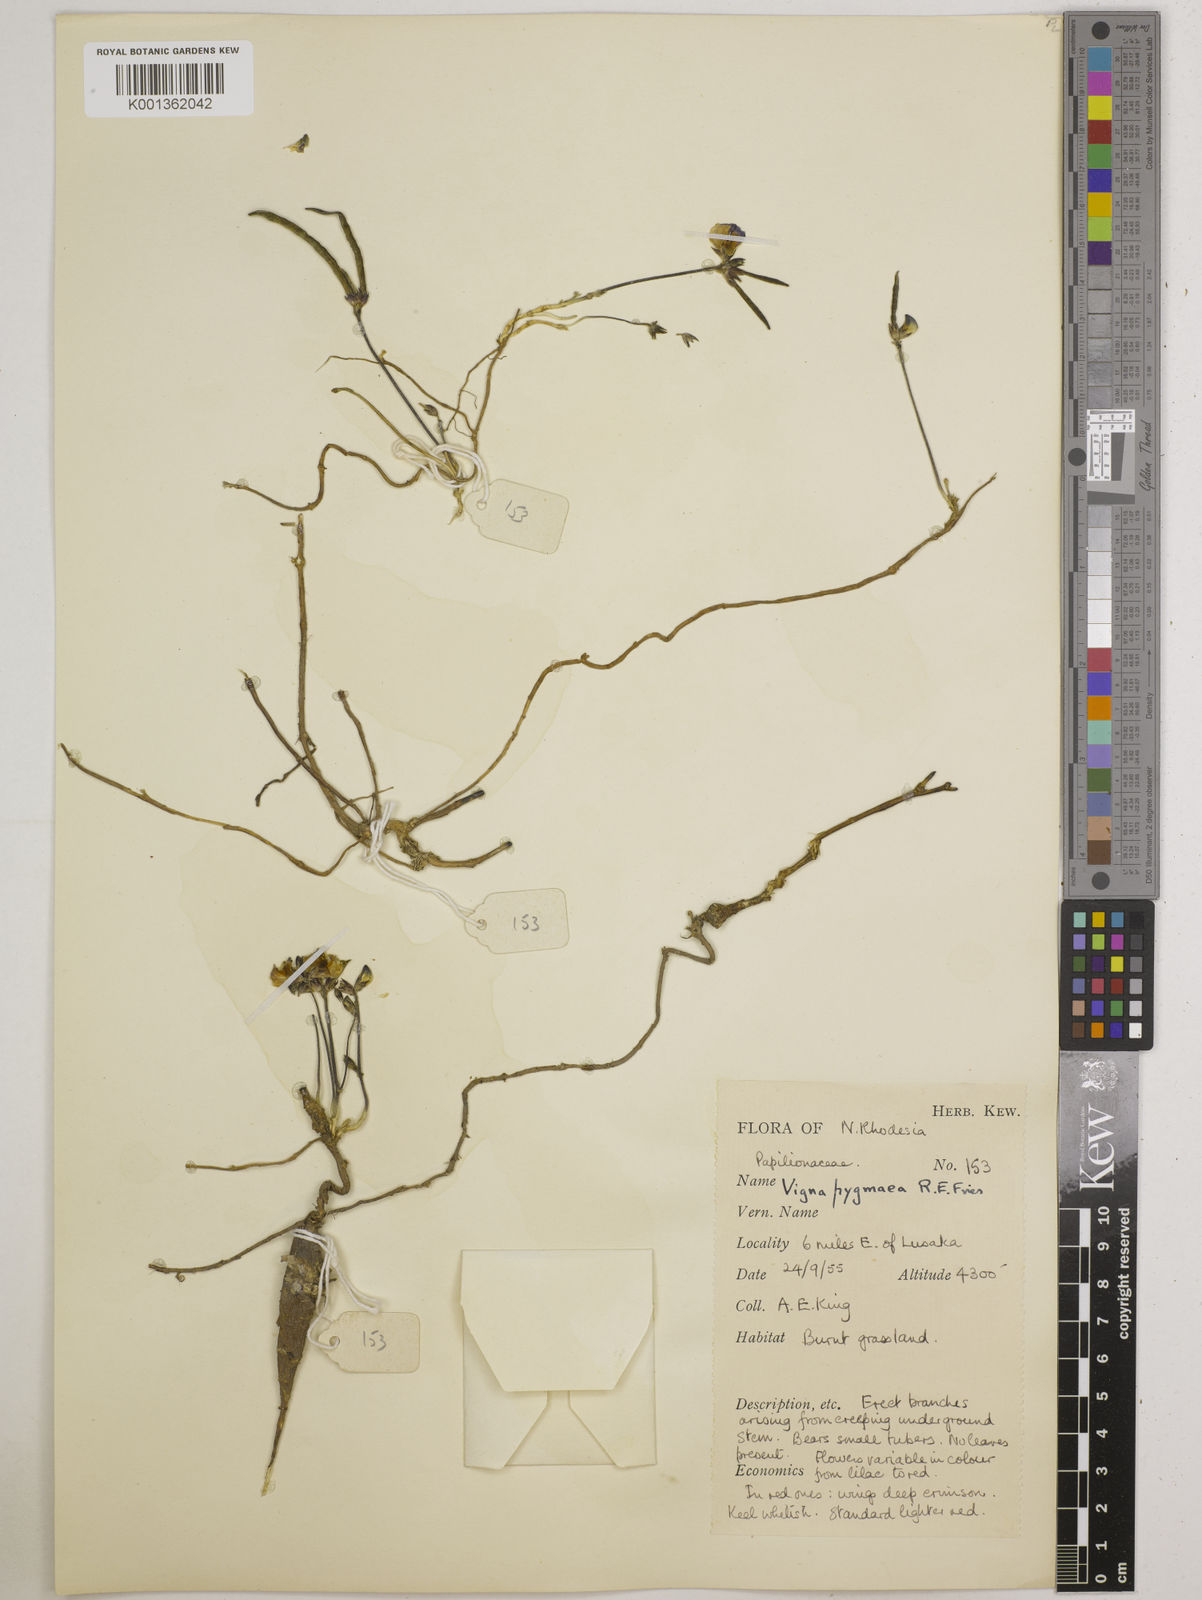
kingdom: Plantae
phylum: Tracheophyta
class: Magnoliopsida
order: Fabales
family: Fabaceae
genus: Vigna
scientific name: Vigna pygmaea
